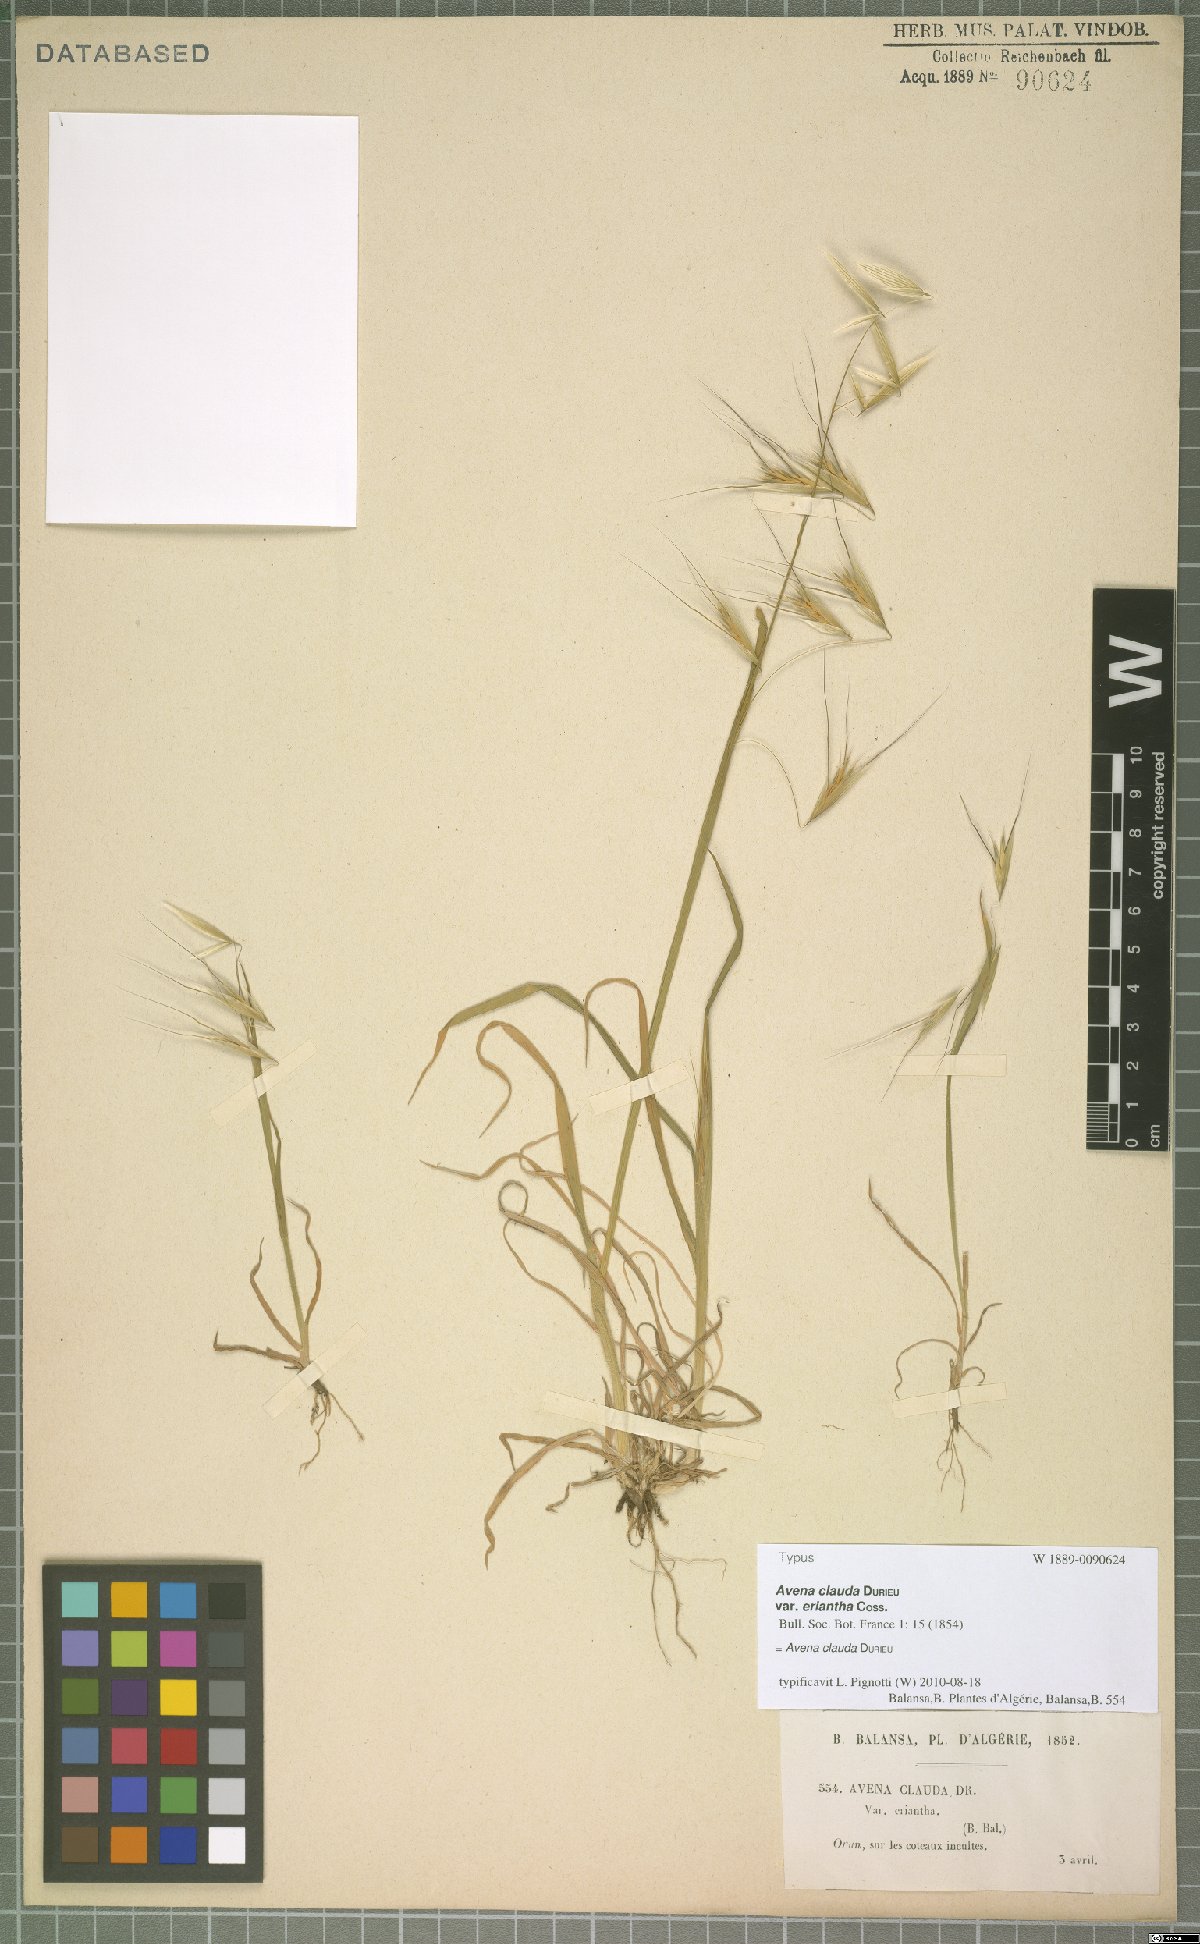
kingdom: Plantae
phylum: Tracheophyta
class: Liliopsida
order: Poales
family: Poaceae
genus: Avena
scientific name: Avena clauda
